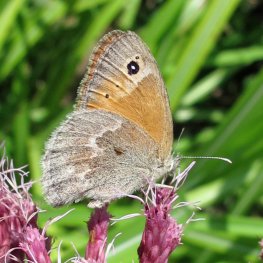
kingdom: Animalia
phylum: Arthropoda
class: Insecta
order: Lepidoptera
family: Nymphalidae
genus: Coenonympha
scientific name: Coenonympha tullia
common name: Large Heath
